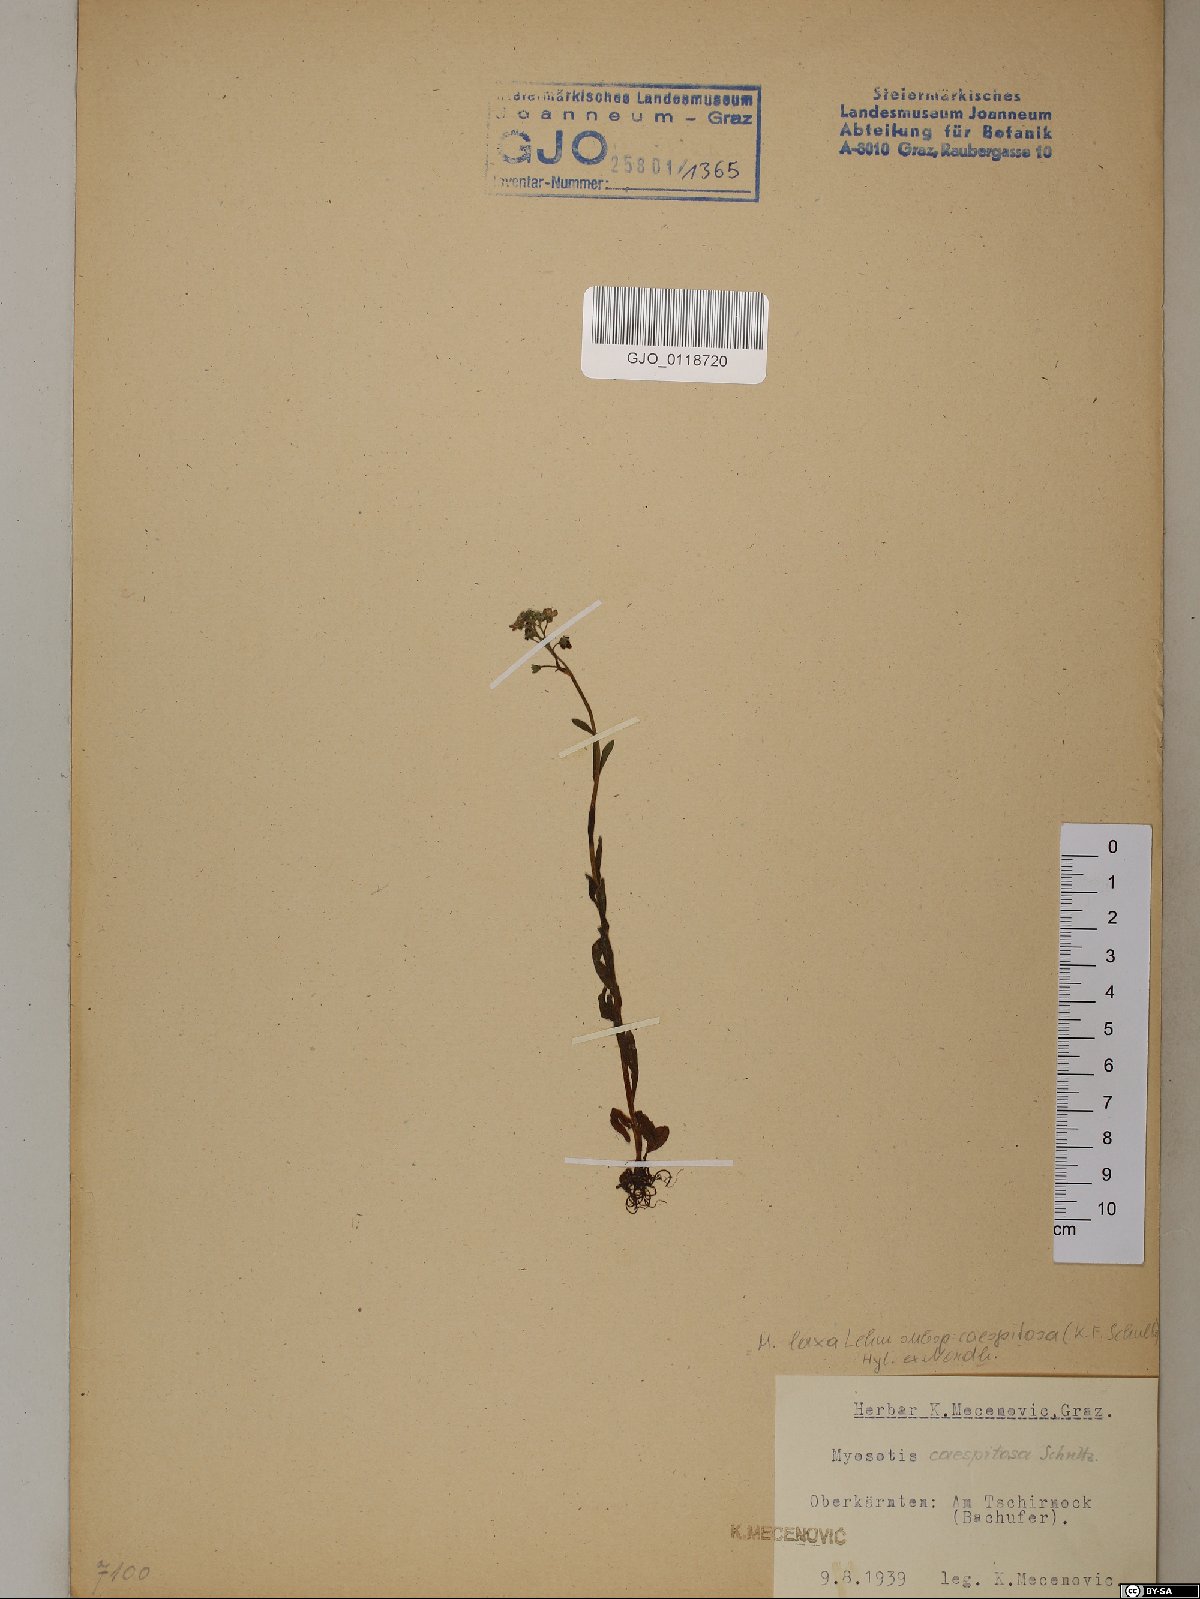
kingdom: Plantae
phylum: Tracheophyta
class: Magnoliopsida
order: Boraginales
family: Boraginaceae
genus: Myosotis
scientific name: Myosotis laxa
